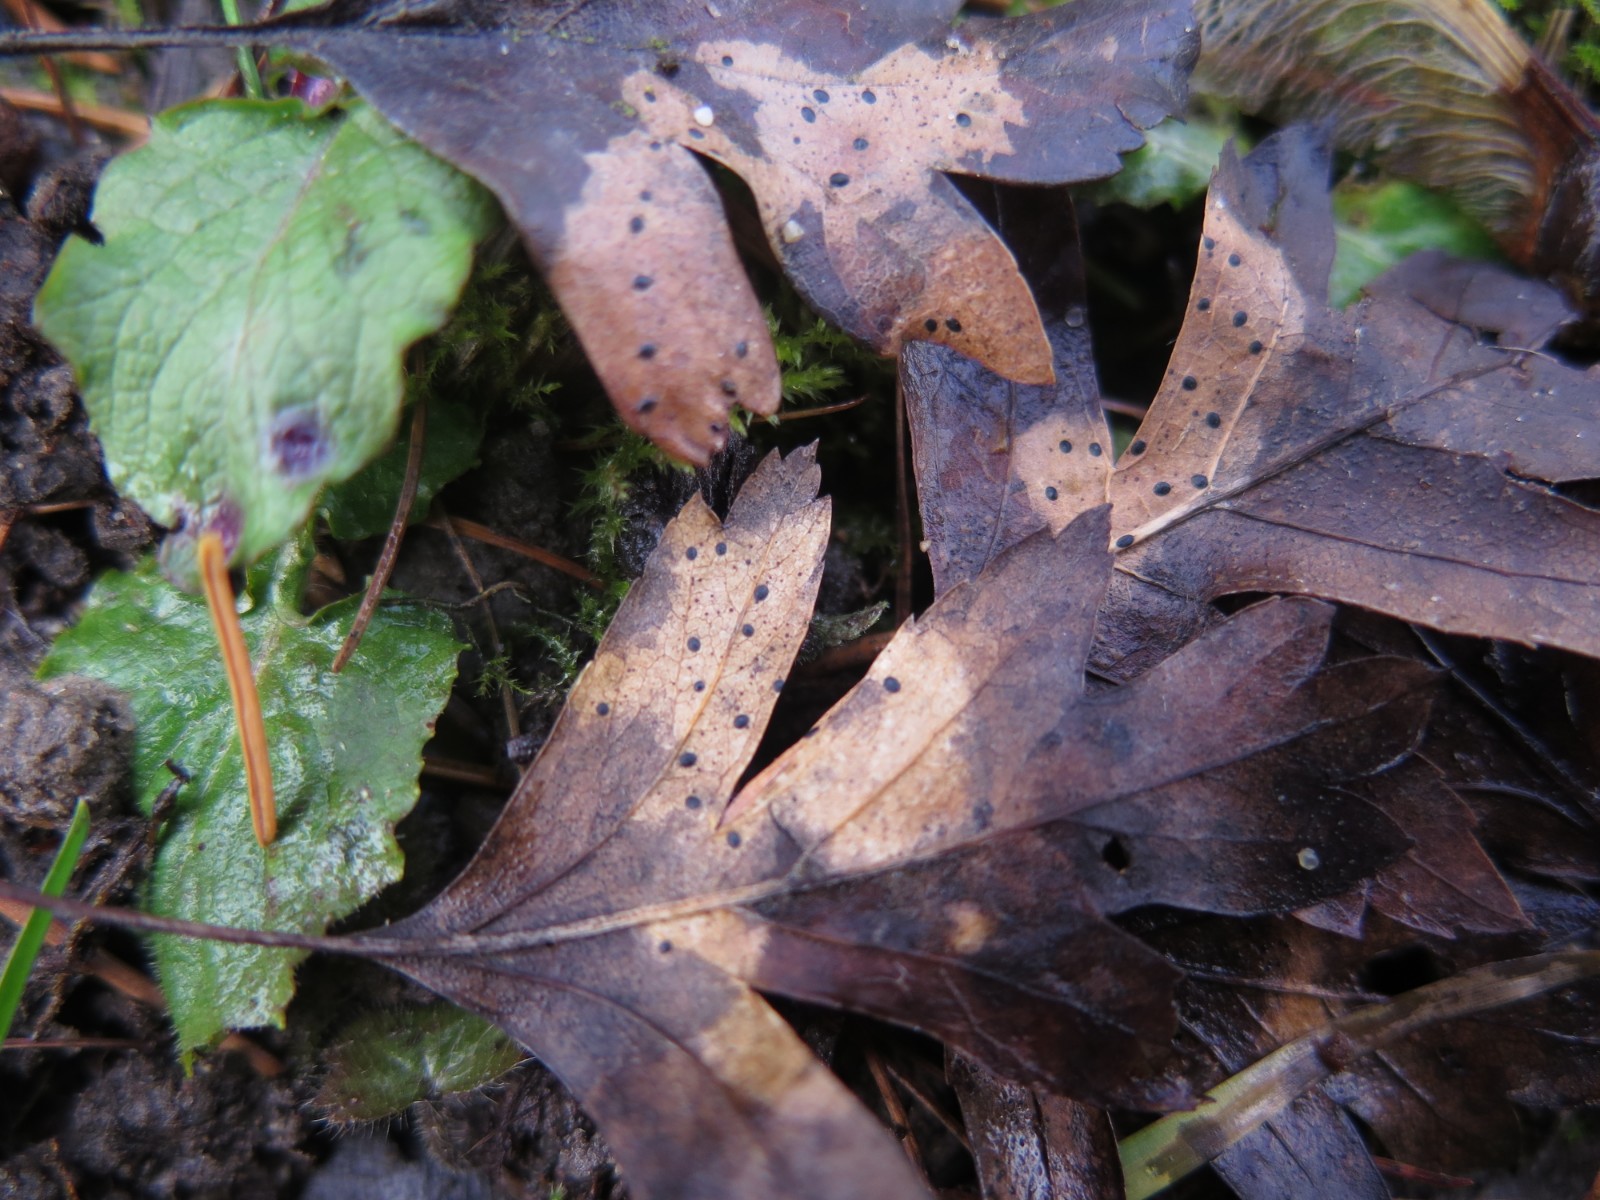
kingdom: Fungi
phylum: Ascomycota
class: Leotiomycetes
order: Rhytismatales
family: Rhytismataceae
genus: Lophodermium
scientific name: Lophodermium foliicola
